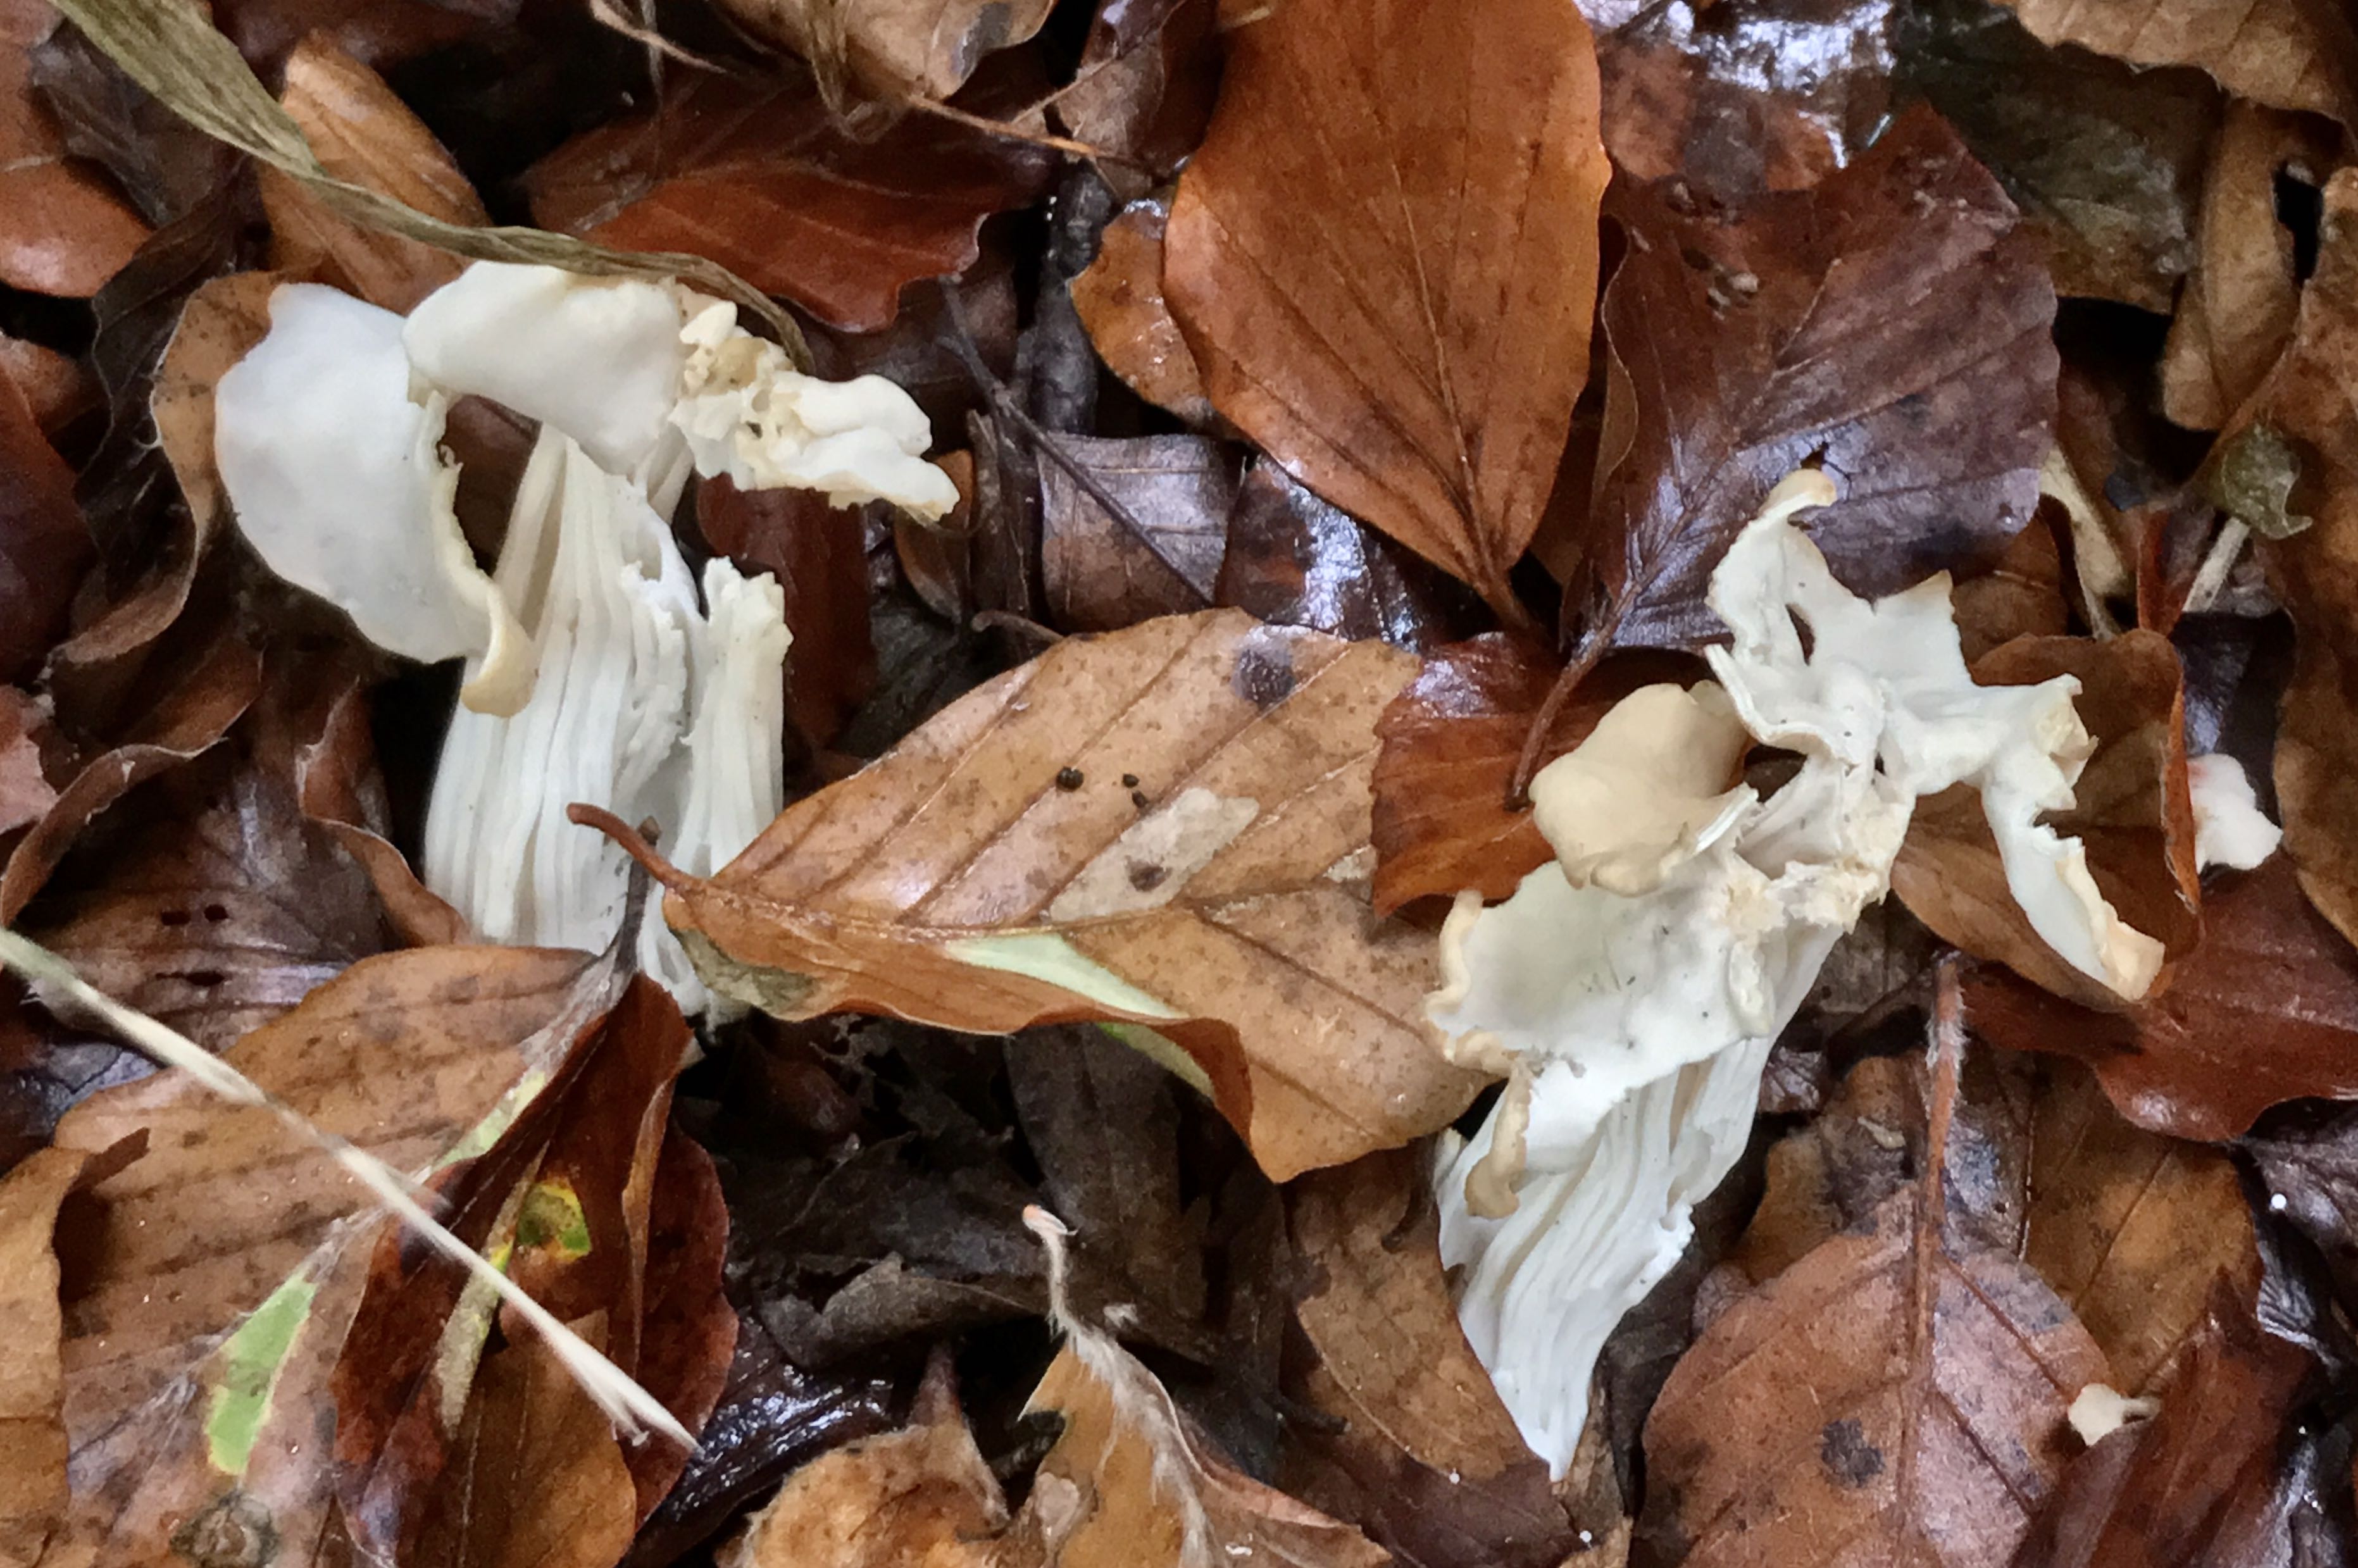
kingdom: Fungi
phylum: Ascomycota
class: Pezizomycetes
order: Pezizales
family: Helvellaceae
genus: Helvella
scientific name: Helvella crispa
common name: kruset foldhat
